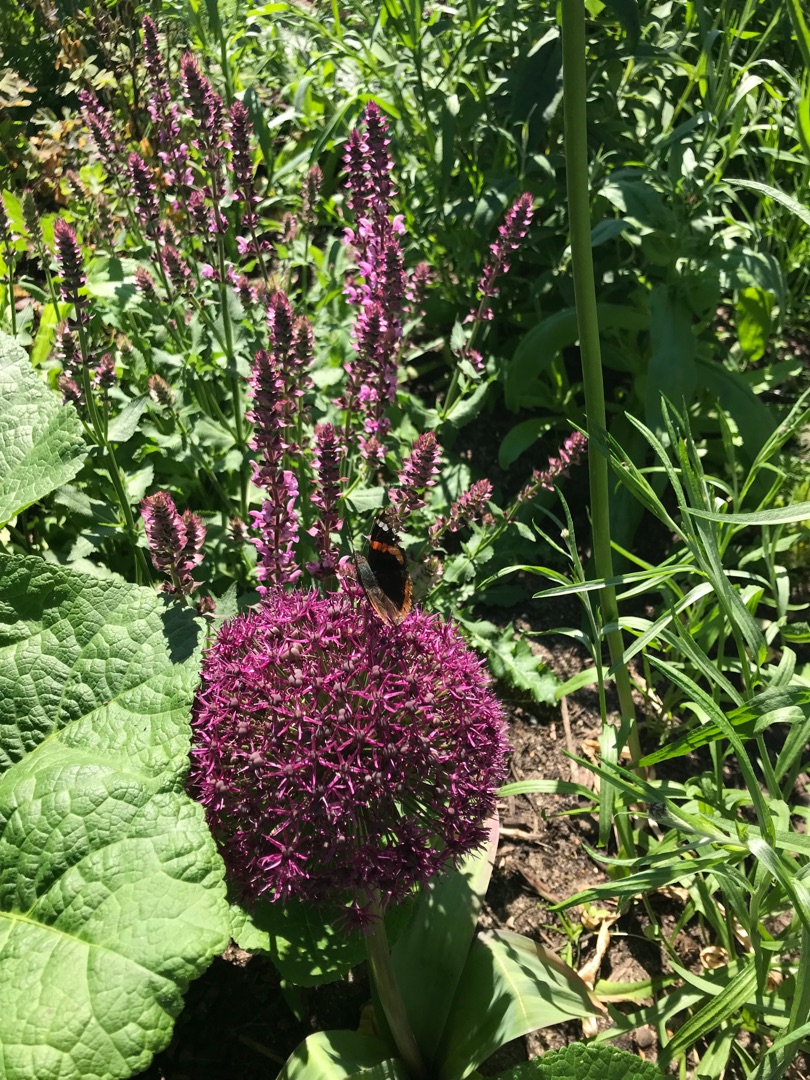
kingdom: Animalia
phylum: Arthropoda
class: Insecta
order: Lepidoptera
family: Nymphalidae
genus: Vanessa
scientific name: Vanessa atalanta
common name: Admiral
